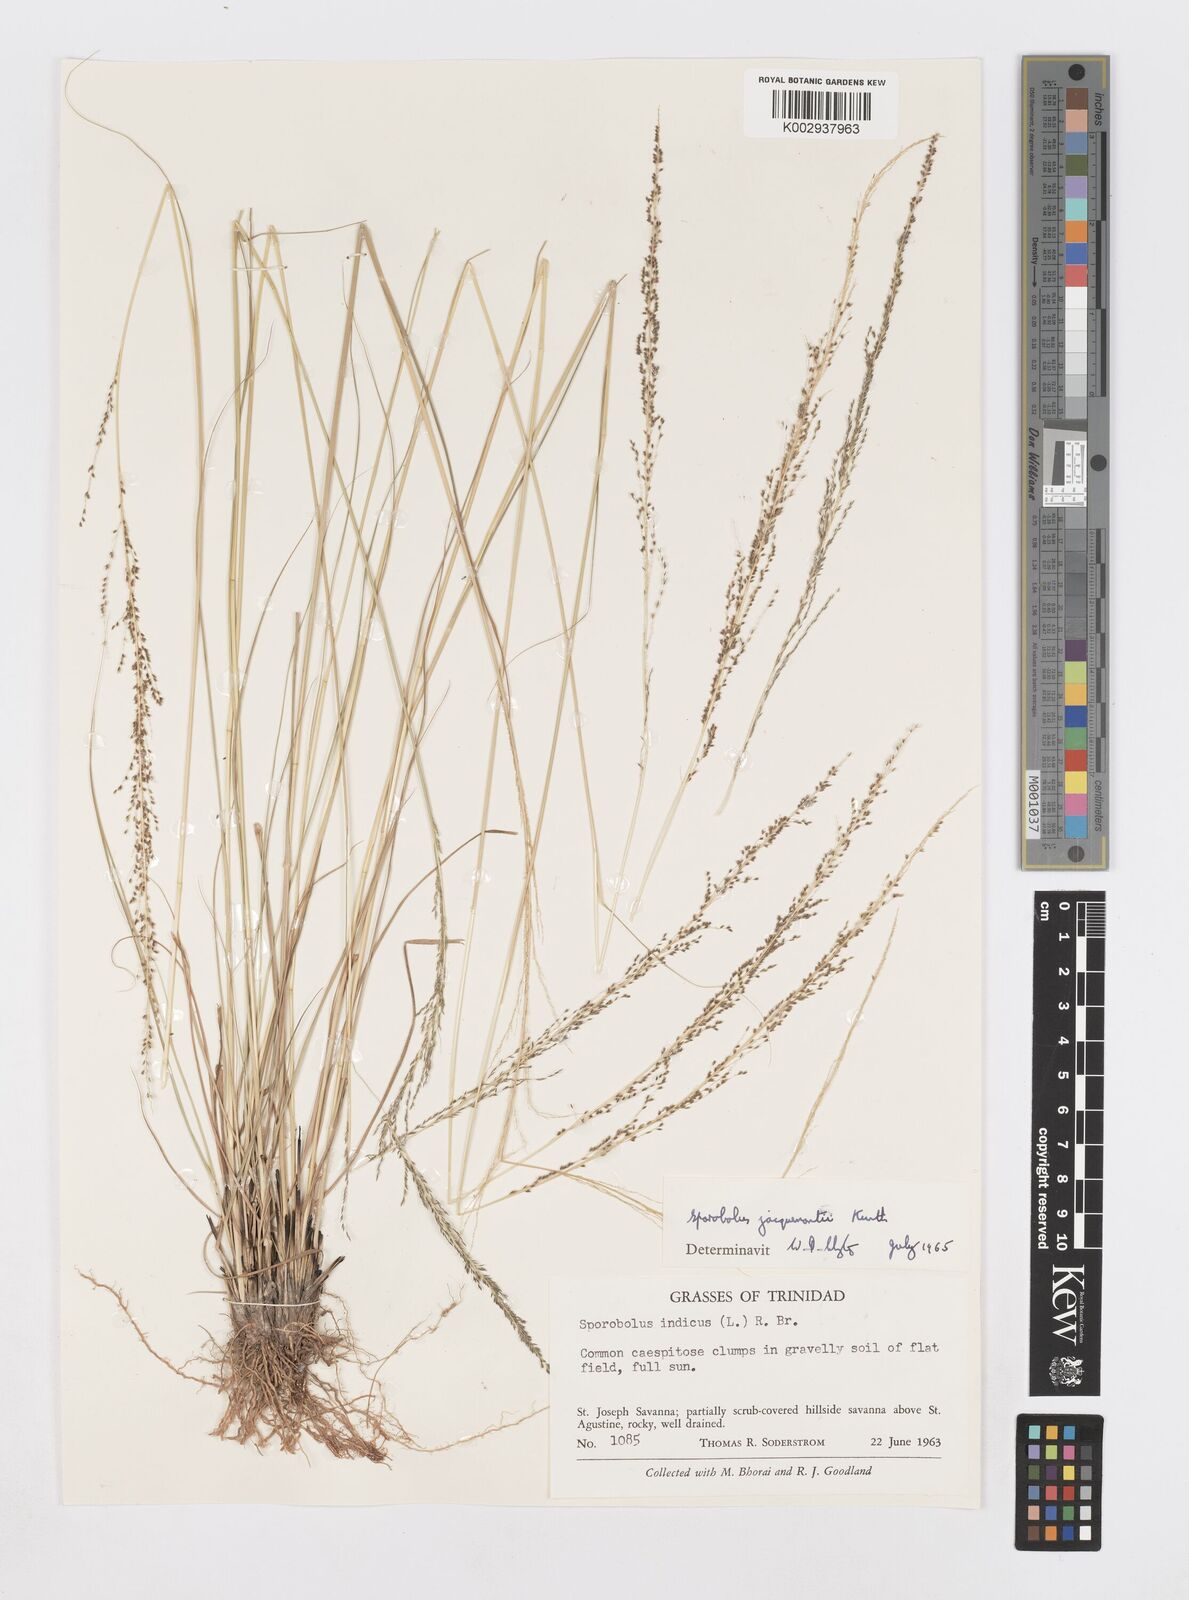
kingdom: Plantae
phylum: Tracheophyta
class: Liliopsida
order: Poales
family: Poaceae
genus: Sporobolus
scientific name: Sporobolus pyramidalis
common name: West indian dropseed
